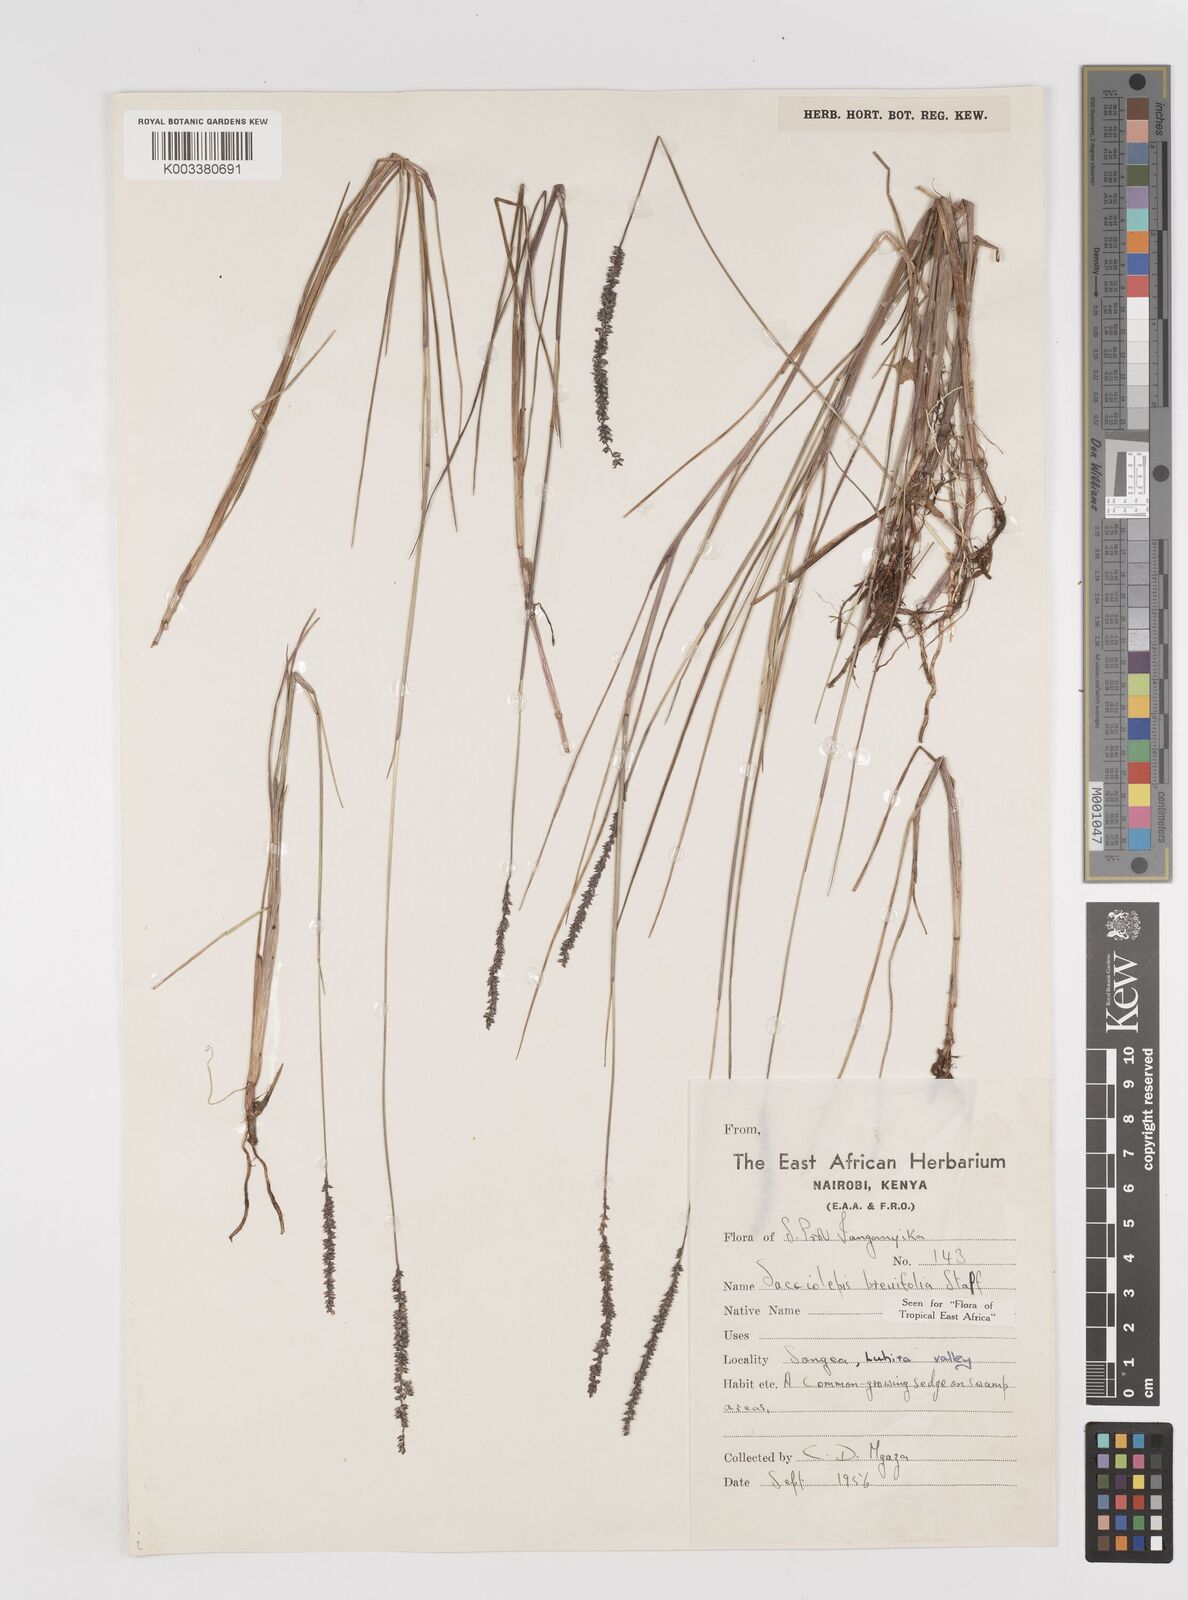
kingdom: Plantae
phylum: Tracheophyta
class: Liliopsida
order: Poales
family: Poaceae
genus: Sacciolepis
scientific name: Sacciolepis chevalieri
